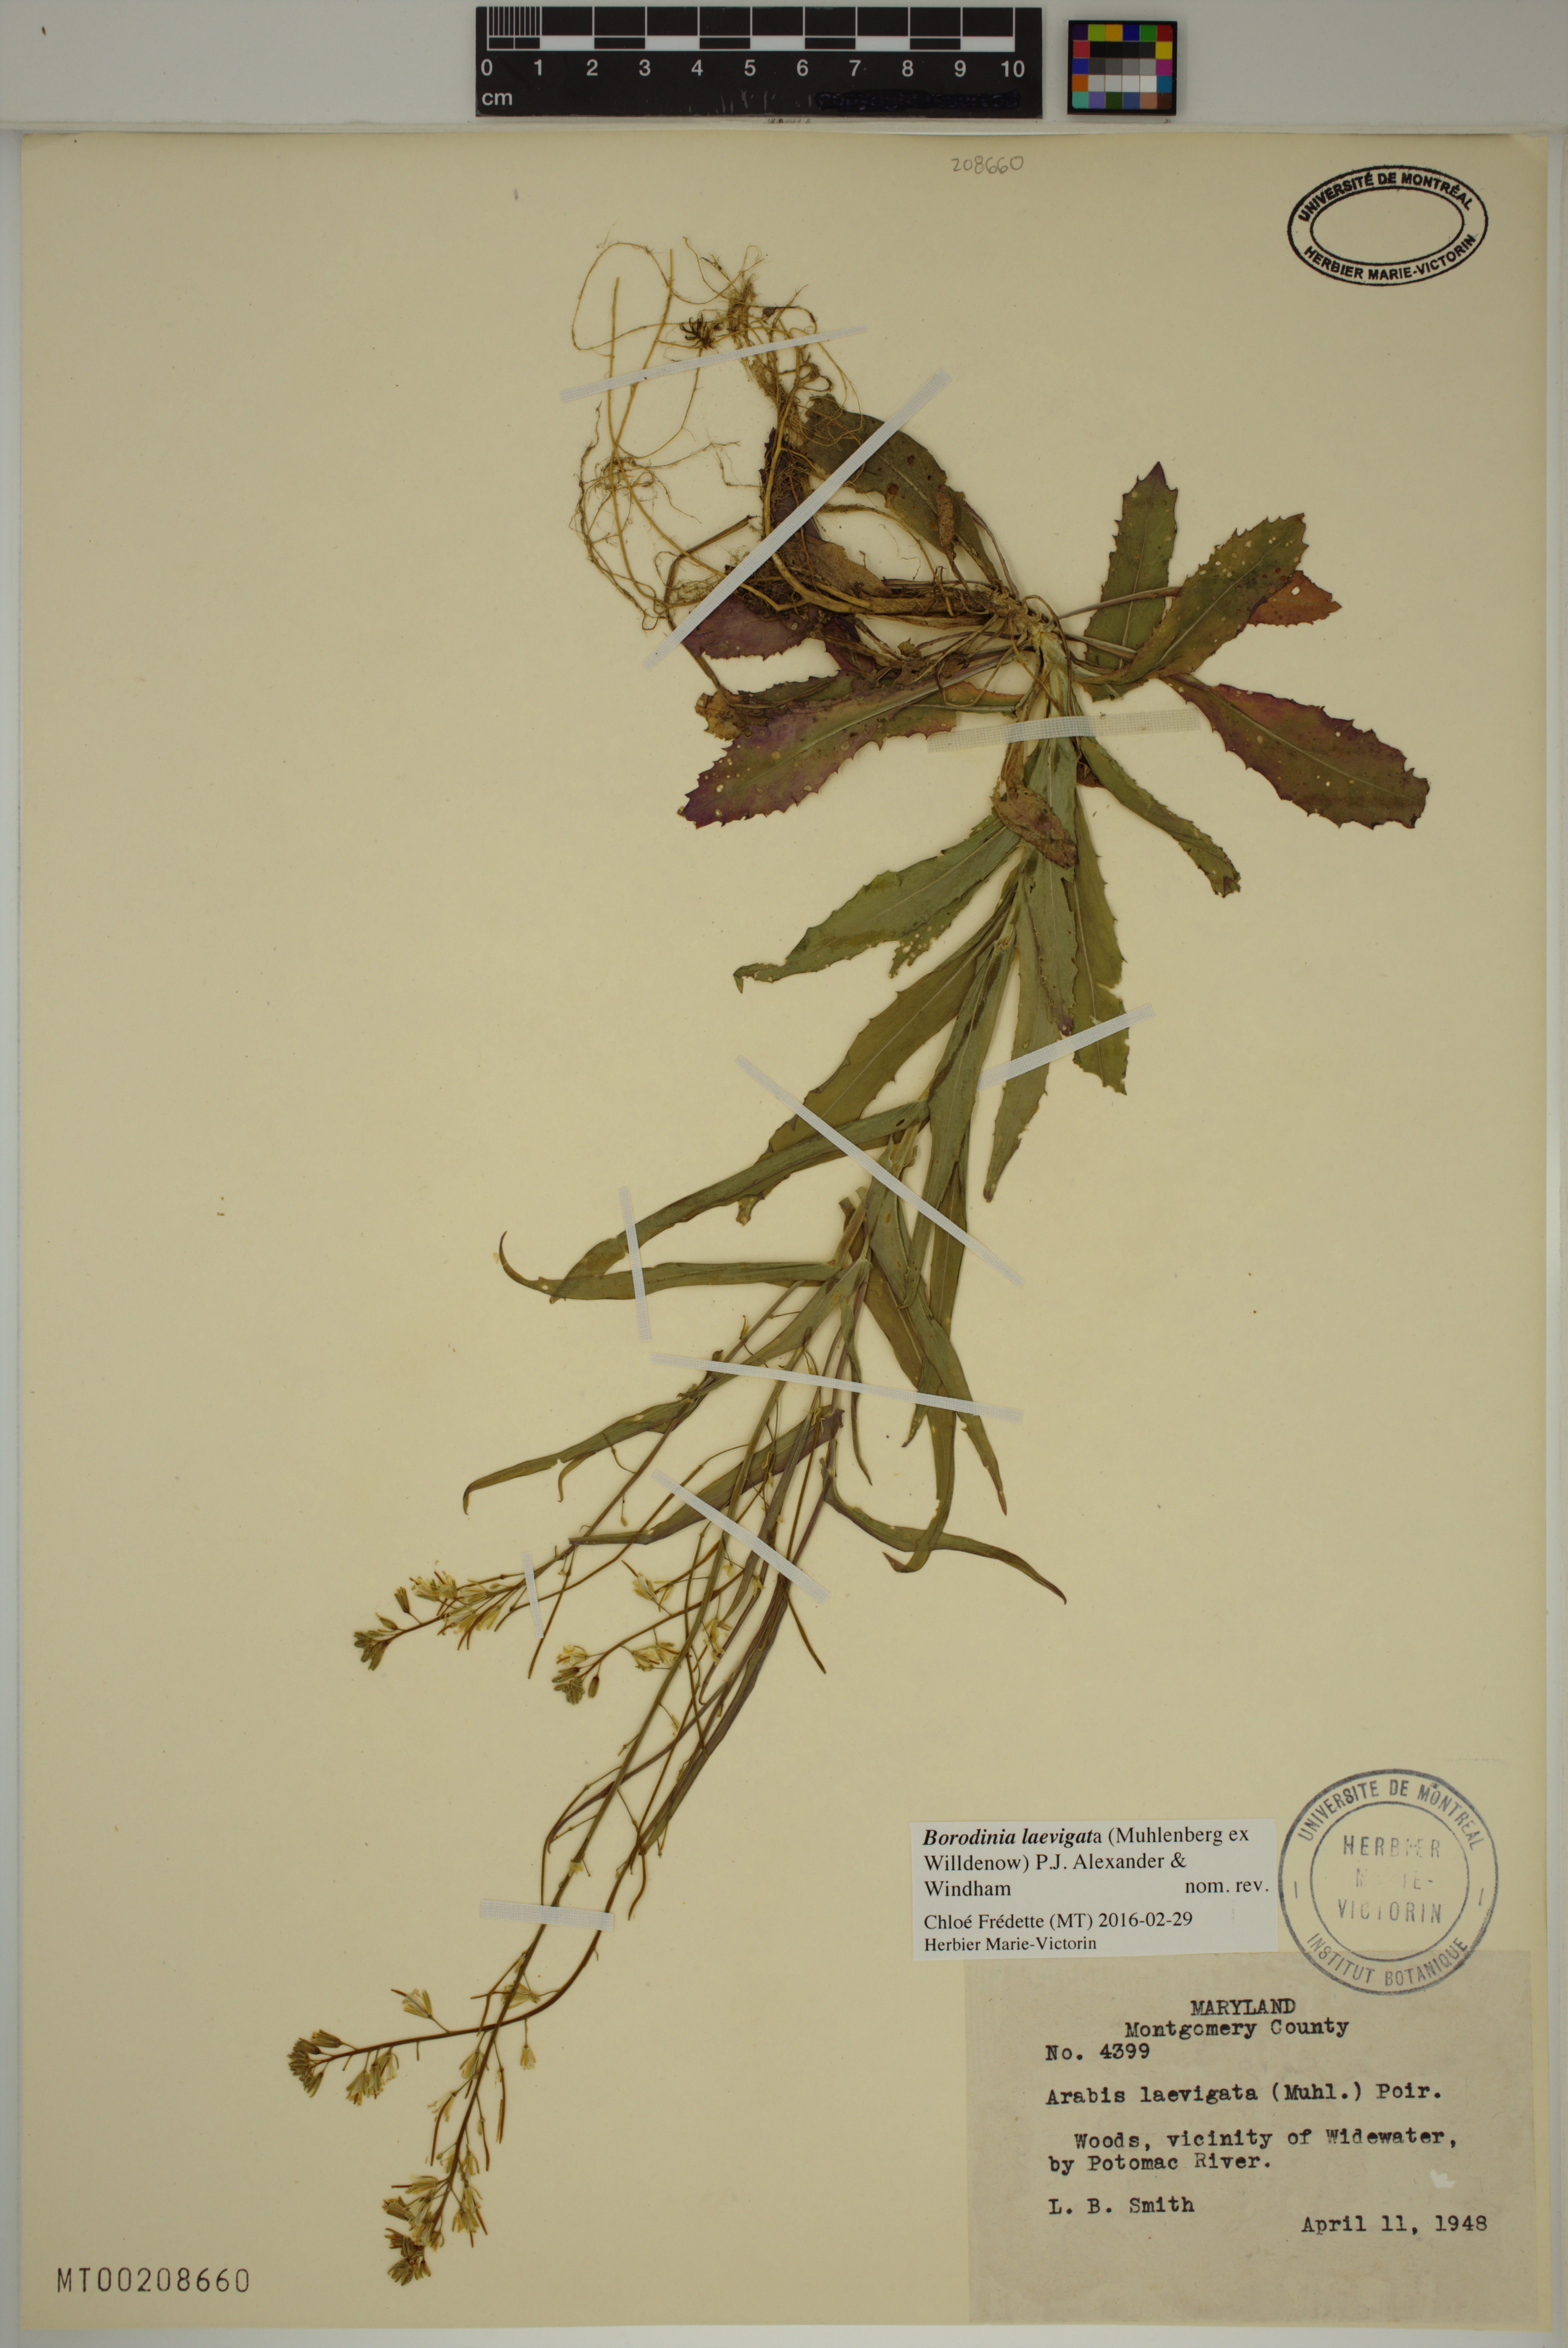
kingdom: Plantae
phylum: Tracheophyta
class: Magnoliopsida
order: Brassicales
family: Brassicaceae
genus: Borodinia
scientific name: Borodinia laevigata
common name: Smooth rockcress
